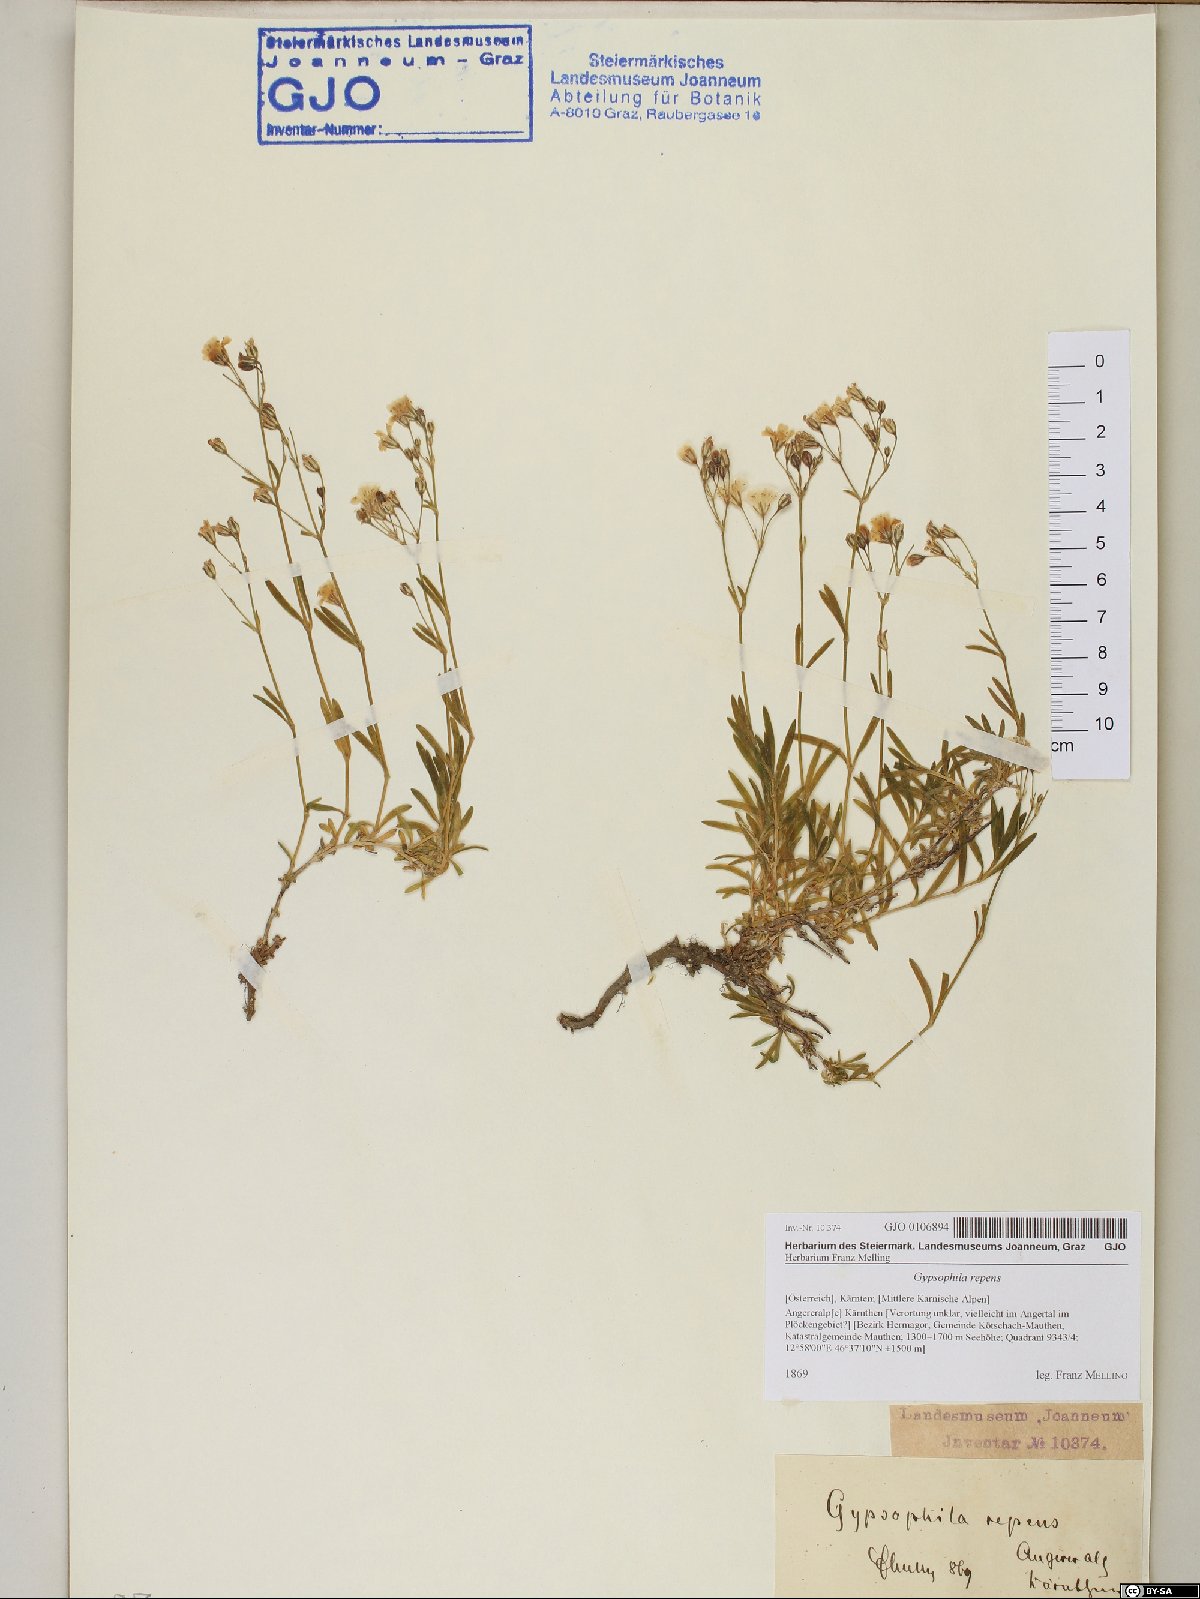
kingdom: Plantae
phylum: Tracheophyta
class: Magnoliopsida
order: Caryophyllales
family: Caryophyllaceae
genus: Gypsophila
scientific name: Gypsophila repens
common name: Creeping baby's-breath
